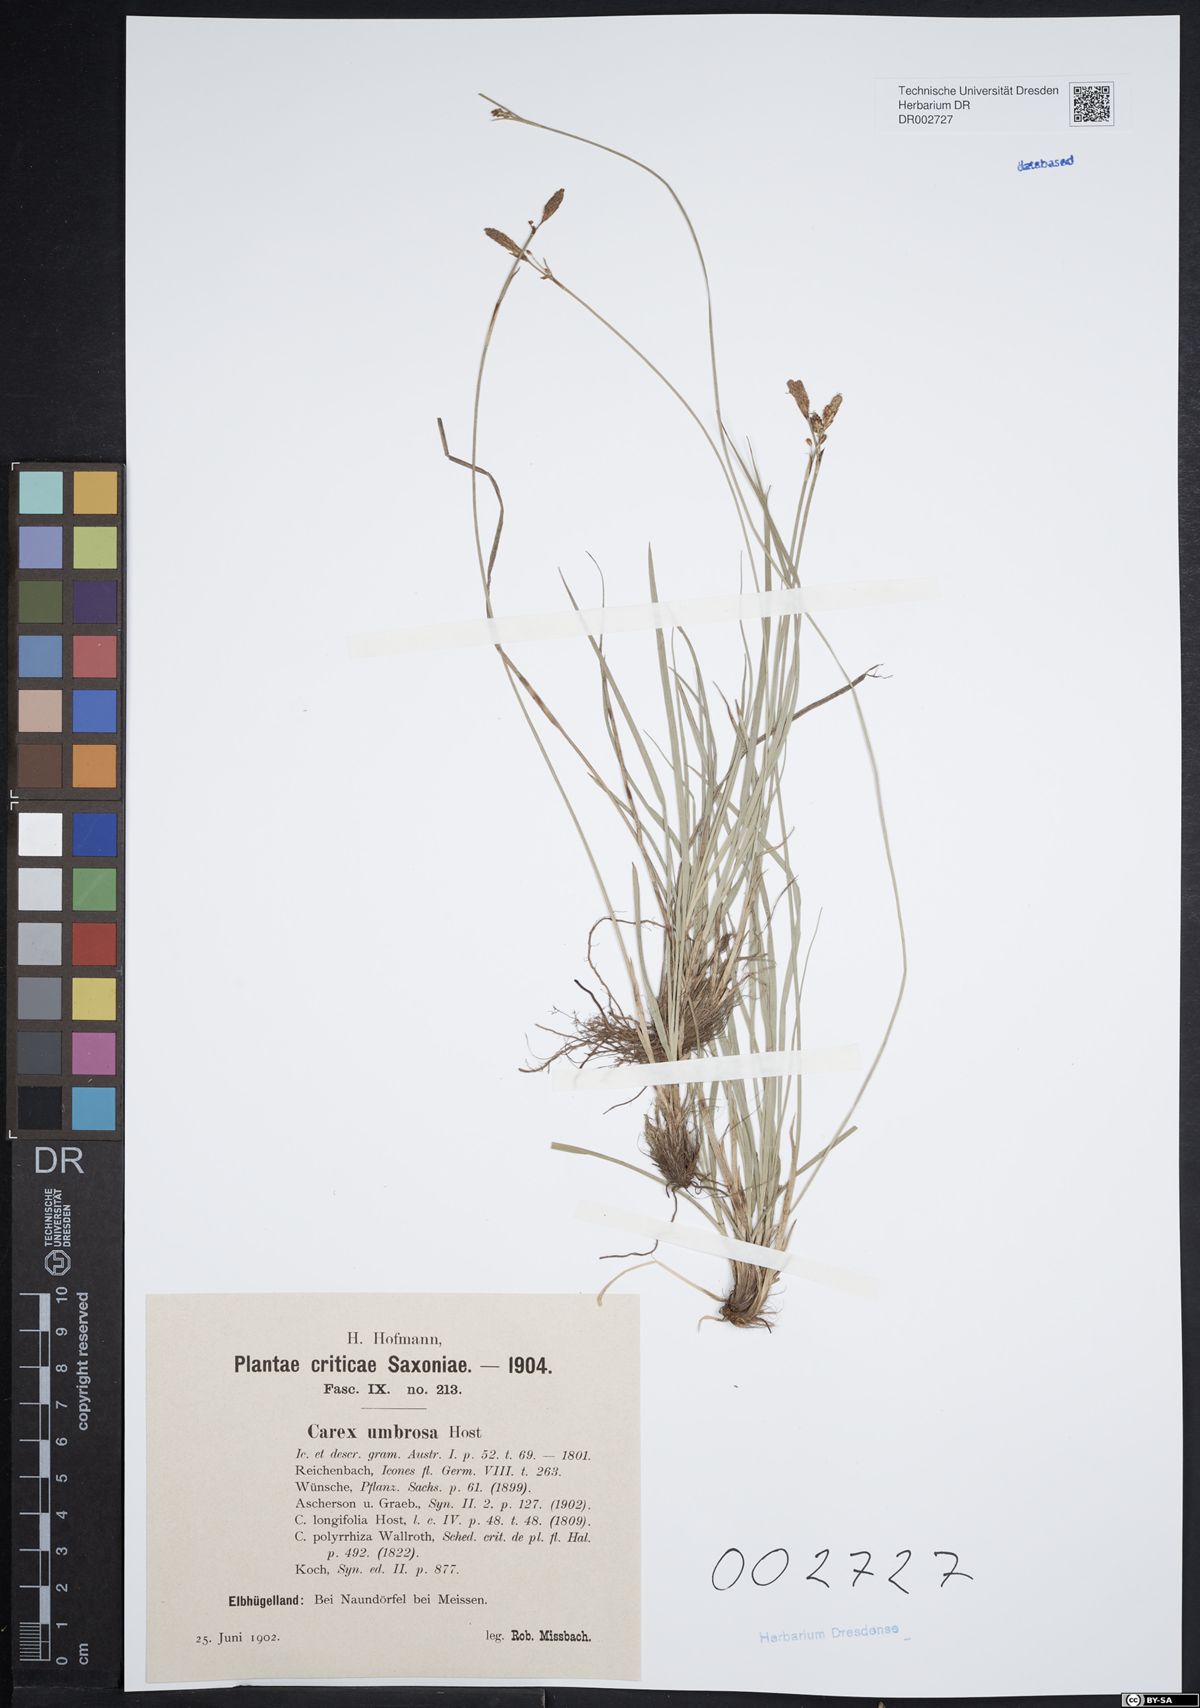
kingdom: Plantae
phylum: Tracheophyta
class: Liliopsida
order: Poales
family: Cyperaceae
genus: Carex
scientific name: Carex umbrosa
